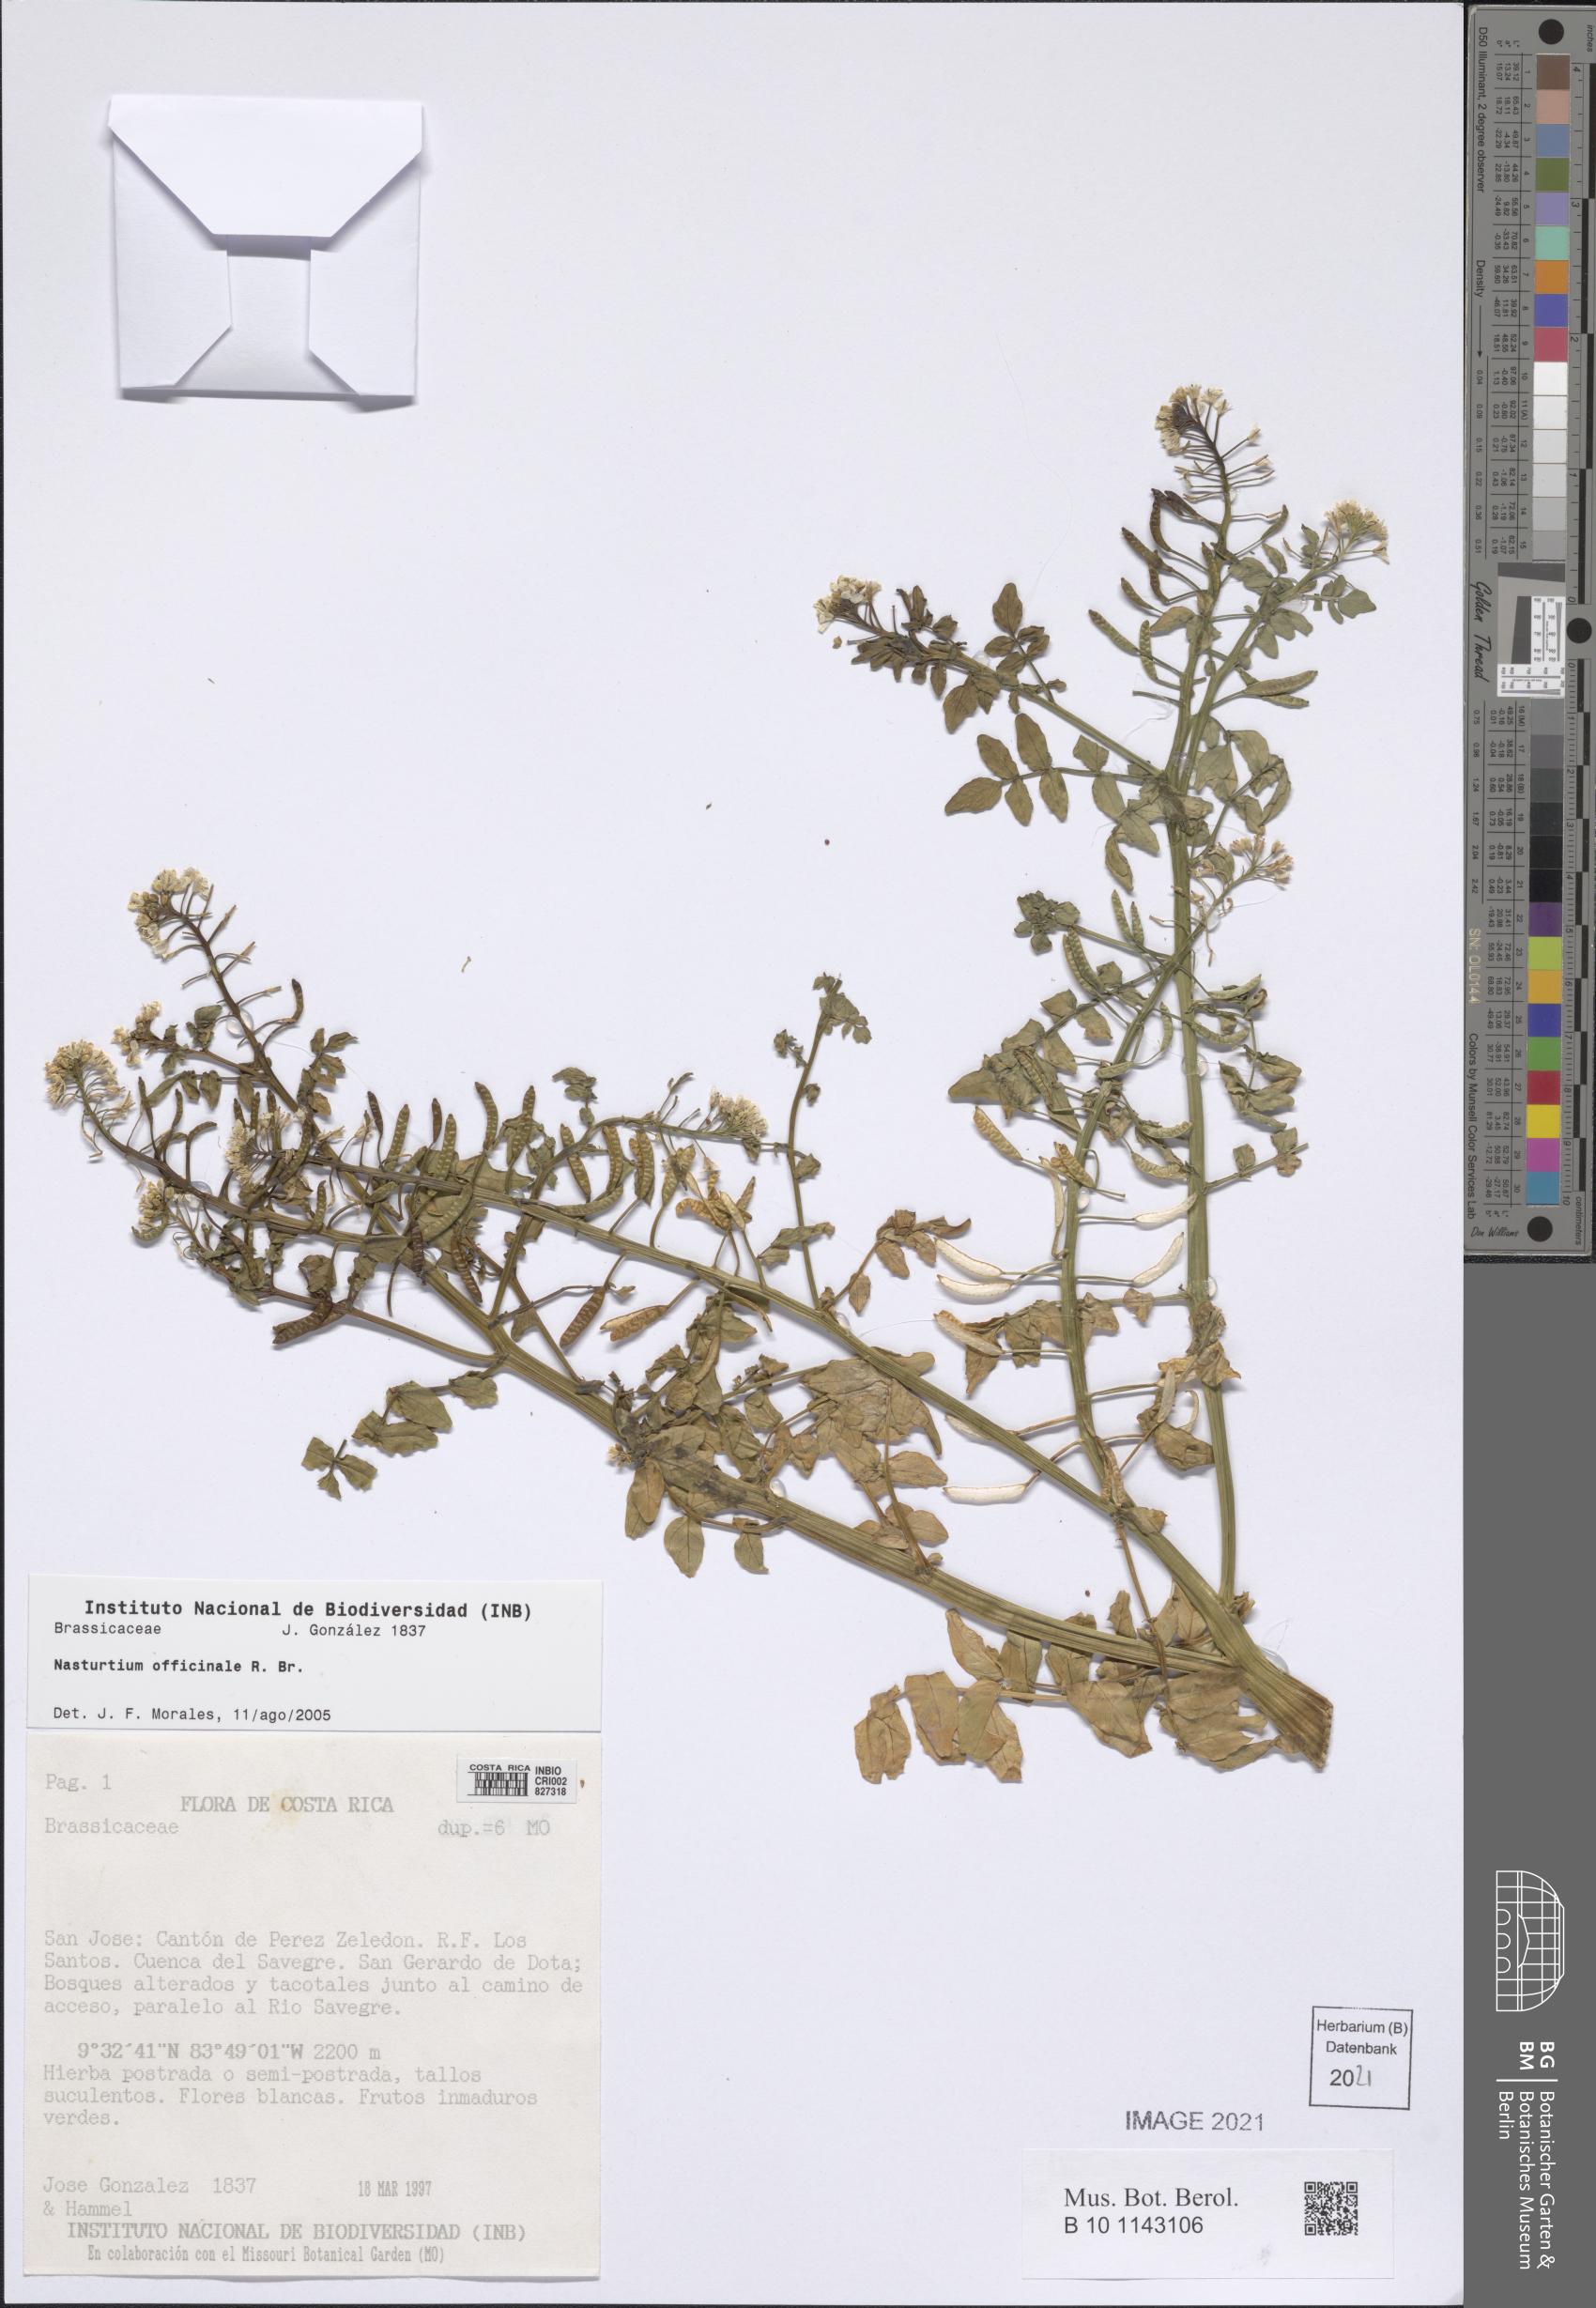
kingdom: Plantae
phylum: Tracheophyta
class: Magnoliopsida
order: Brassicales
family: Brassicaceae
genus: Nasturtium
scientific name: Nasturtium officinale
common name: Watercress
